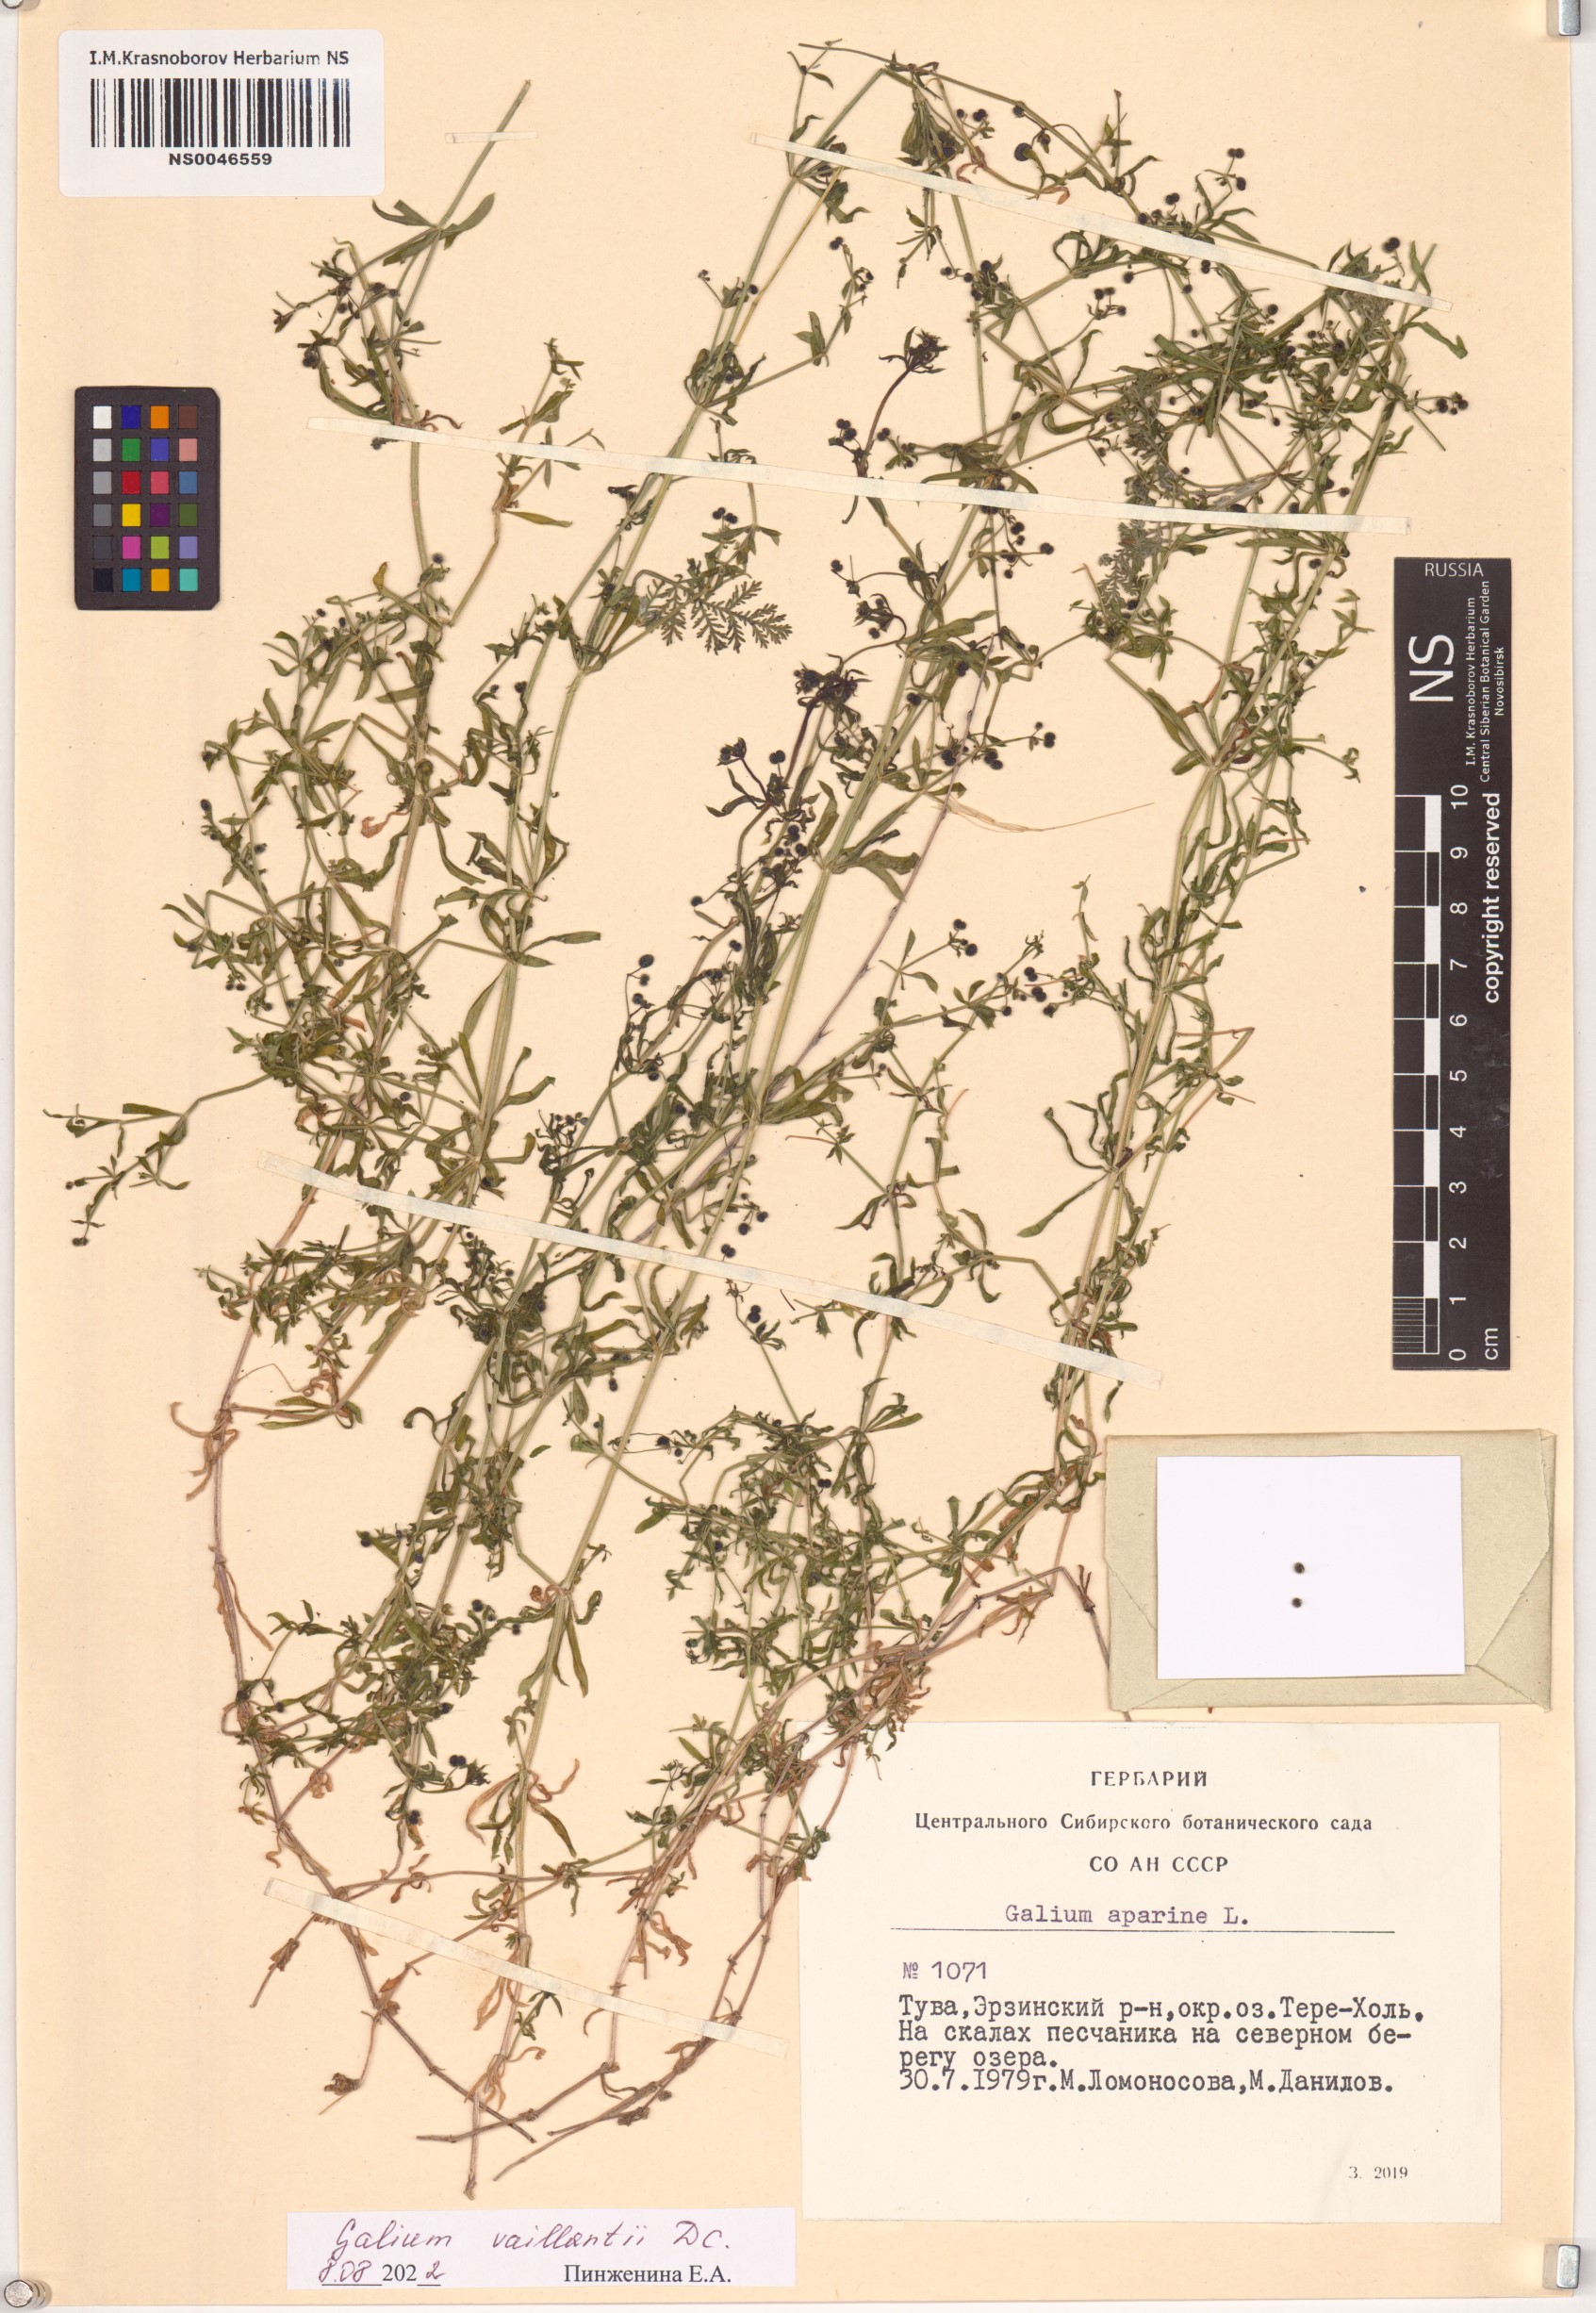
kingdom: Plantae
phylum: Tracheophyta
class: Magnoliopsida
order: Gentianales
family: Rubiaceae
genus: Galium
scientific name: Galium spurium
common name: False cleavers
